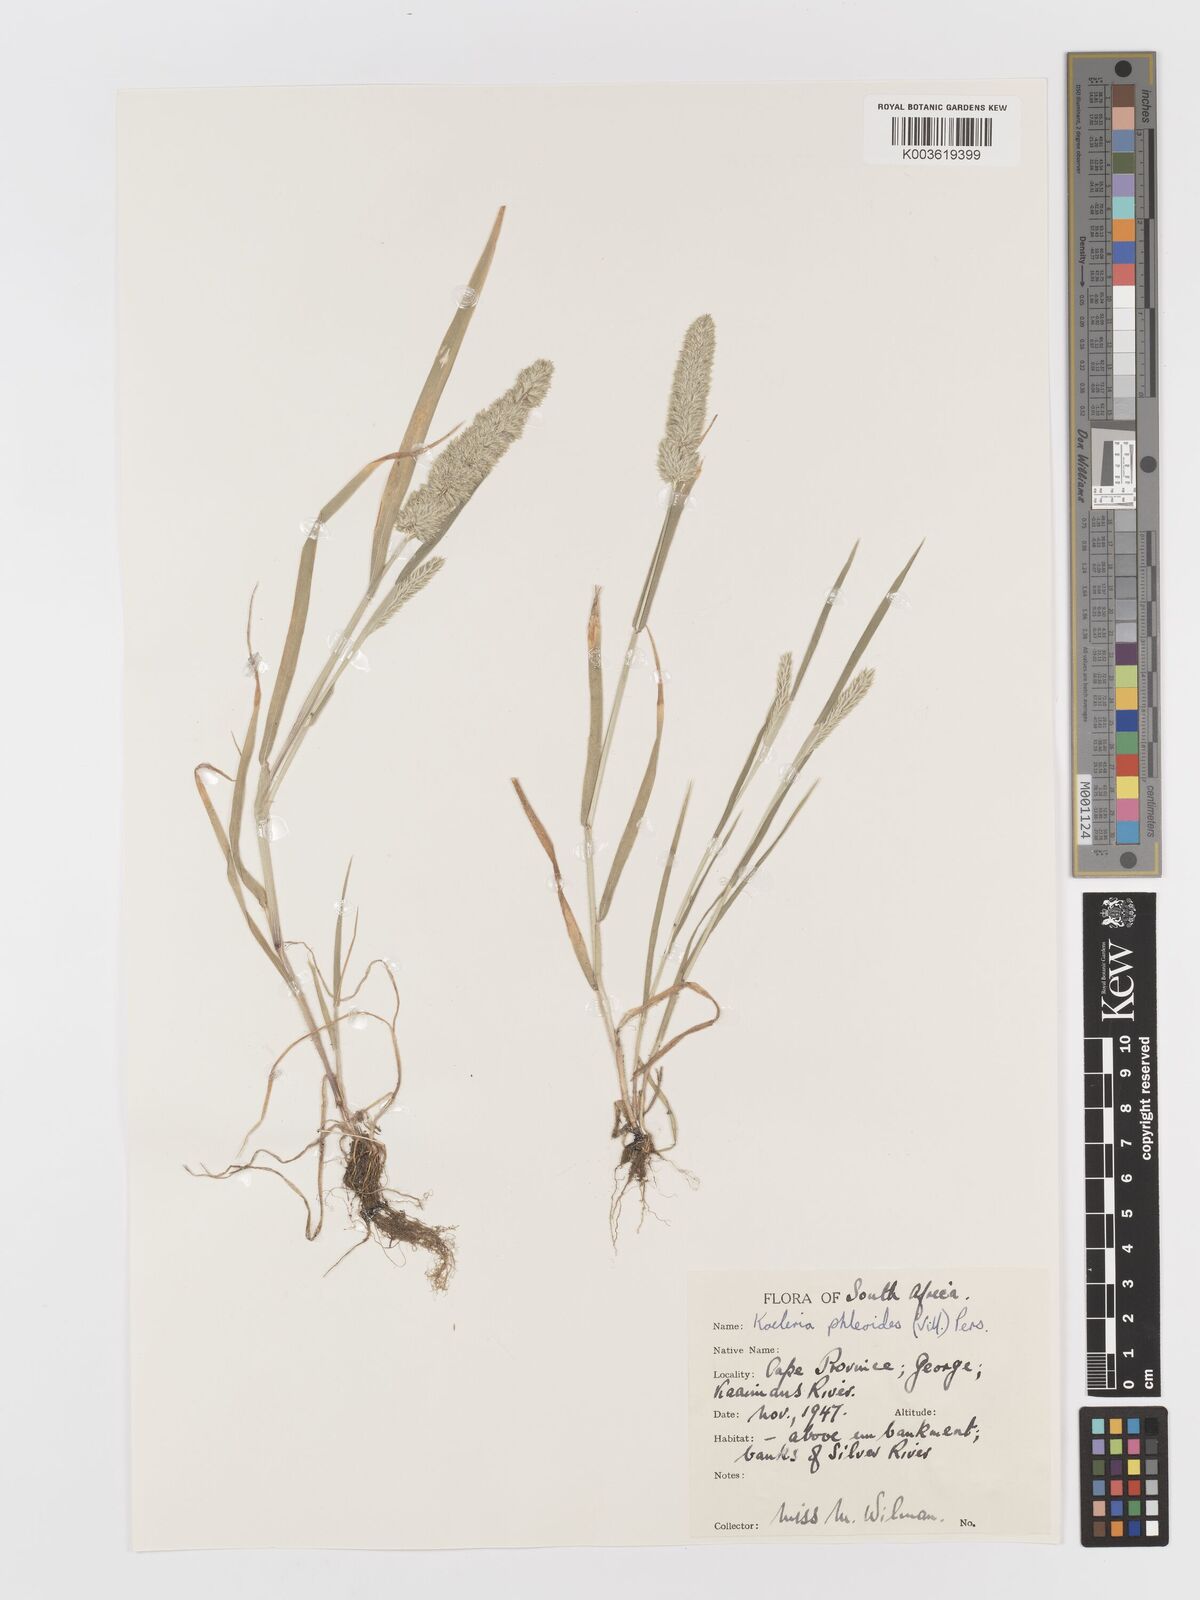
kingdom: Plantae
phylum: Tracheophyta
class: Liliopsida
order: Poales
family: Poaceae
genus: Rostraria
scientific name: Rostraria cristata
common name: Mediterranean hair-grass
